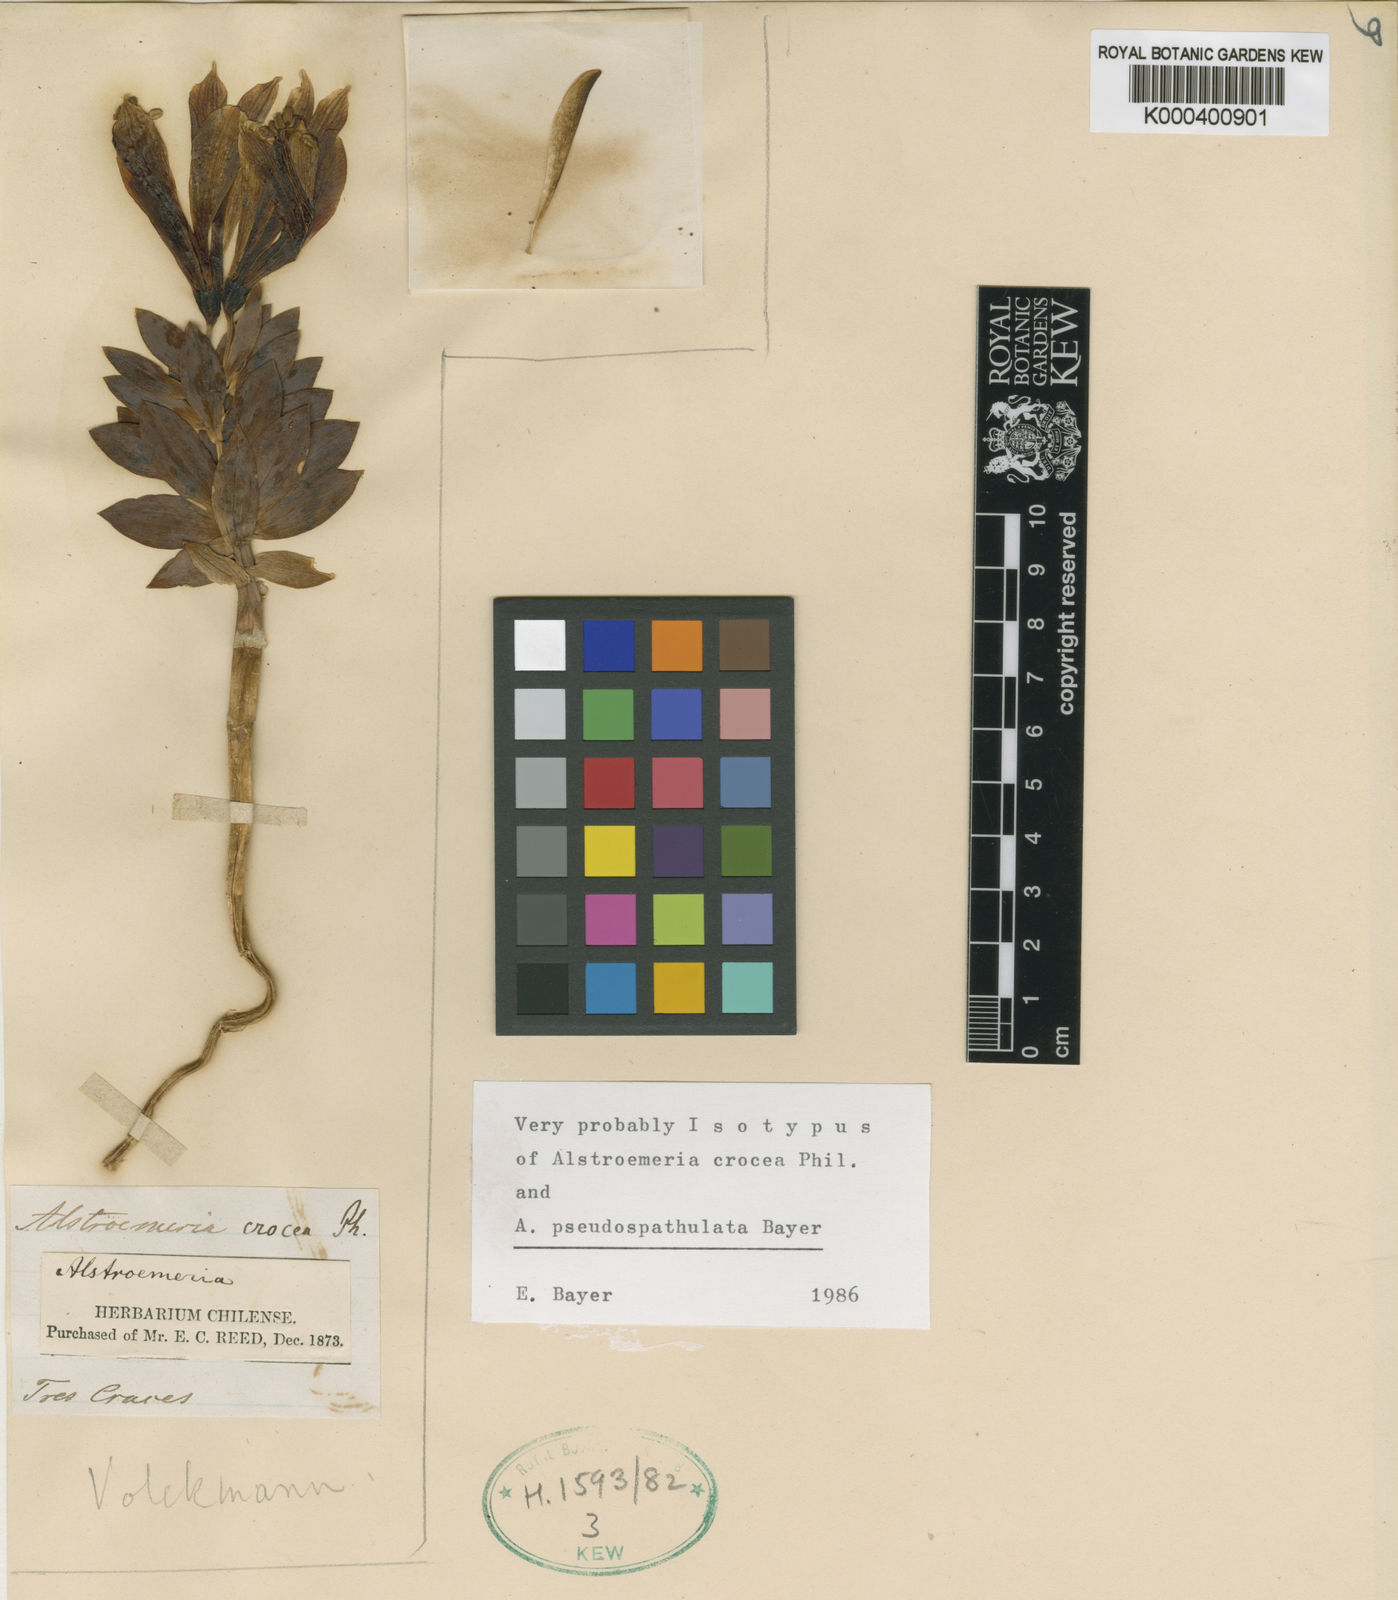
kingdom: Plantae
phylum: Tracheophyta
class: Liliopsida
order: Liliales
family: Alstroemeriaceae
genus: Alstroemeria
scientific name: Alstroemeria pseudospathulata
